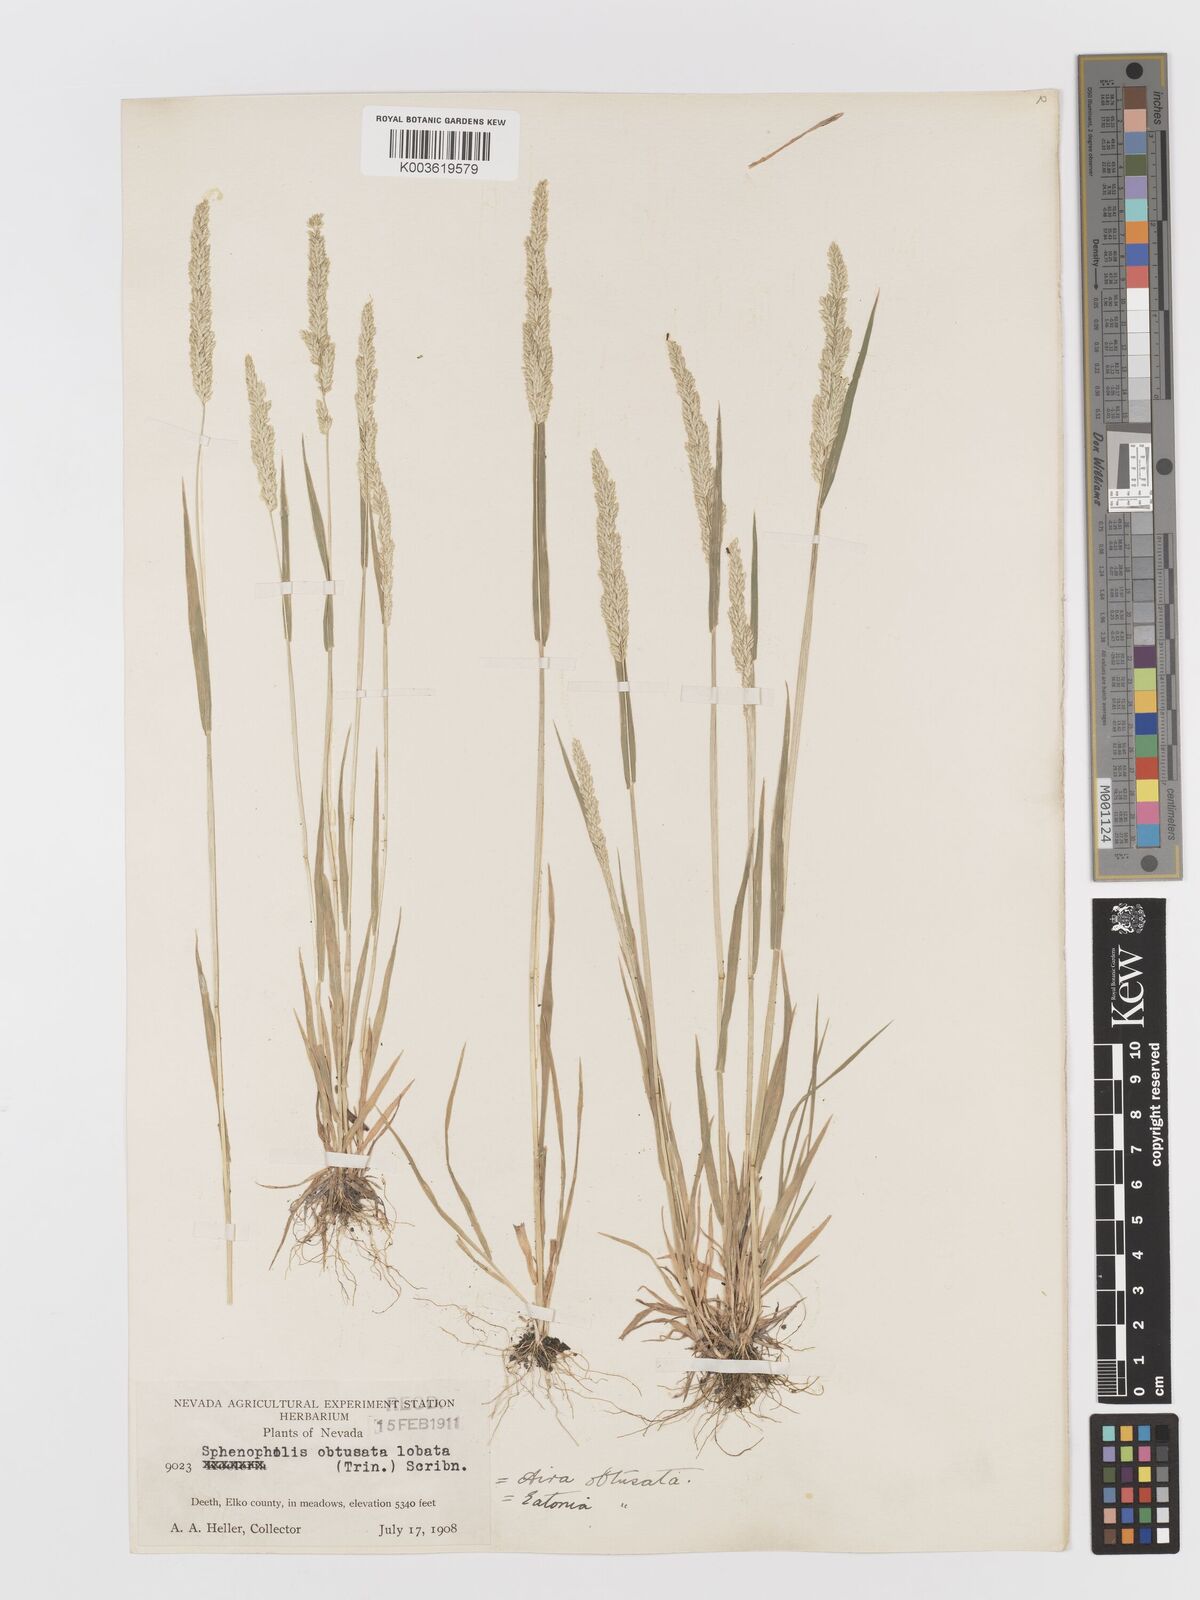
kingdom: Plantae
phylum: Tracheophyta
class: Liliopsida
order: Poales
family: Poaceae
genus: Sphenopholis
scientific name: Sphenopholis obtusata
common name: Prairie grass
